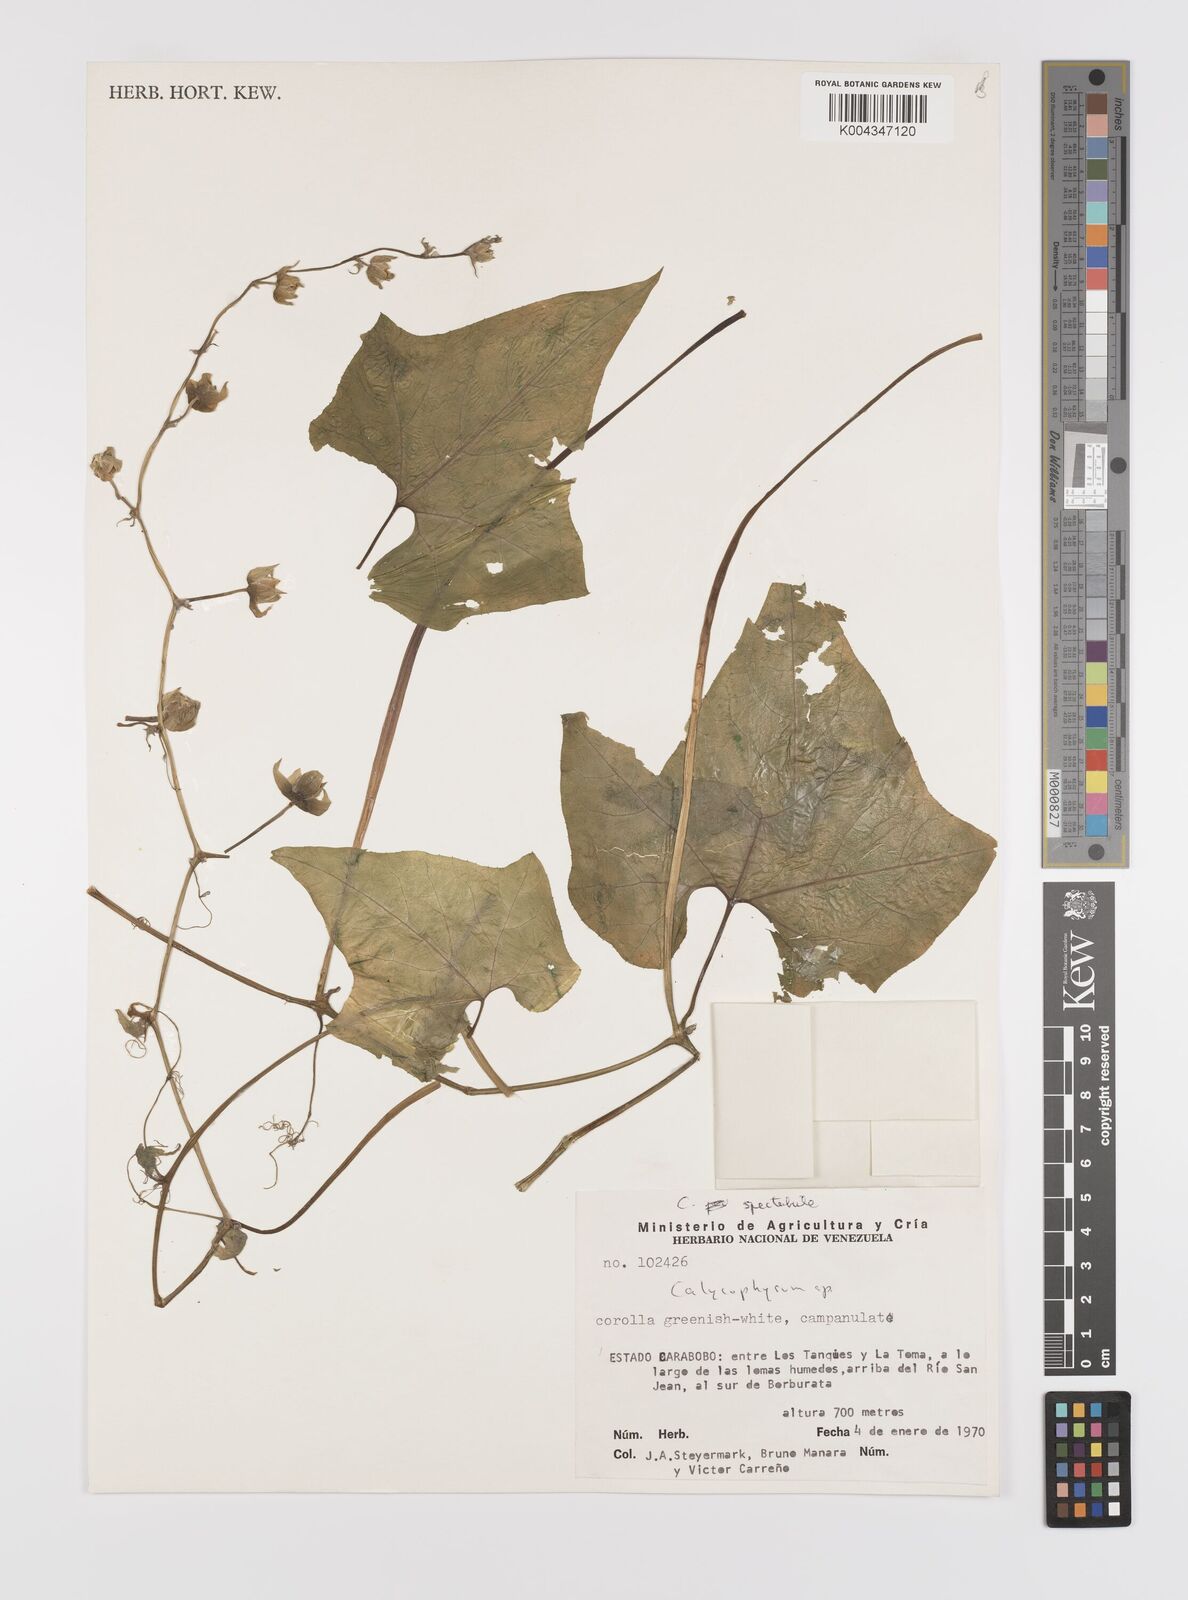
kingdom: Plantae
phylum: Tracheophyta
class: Magnoliopsida
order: Cucurbitales
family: Cucurbitaceae
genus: Calycophysum
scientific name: Calycophysum spectabile
